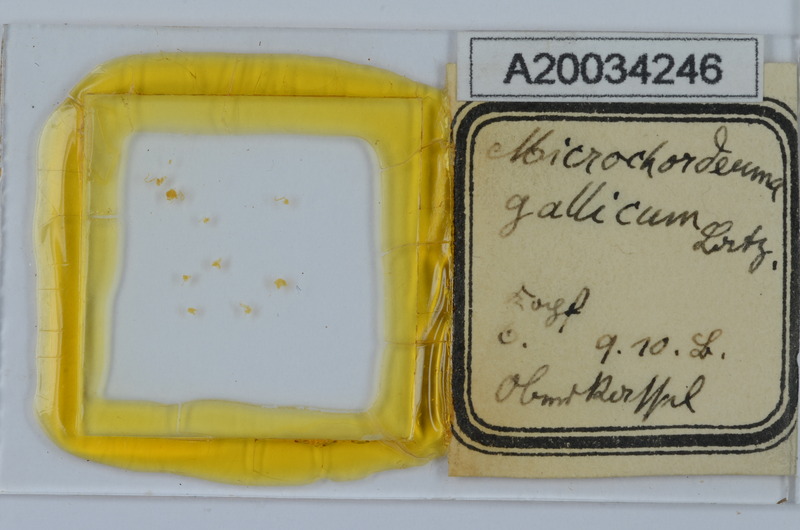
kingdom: Animalia
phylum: Arthropoda
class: Diplopoda
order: Chordeumatida
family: Chordeumatidae
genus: Melogona
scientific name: Melogona gallica
